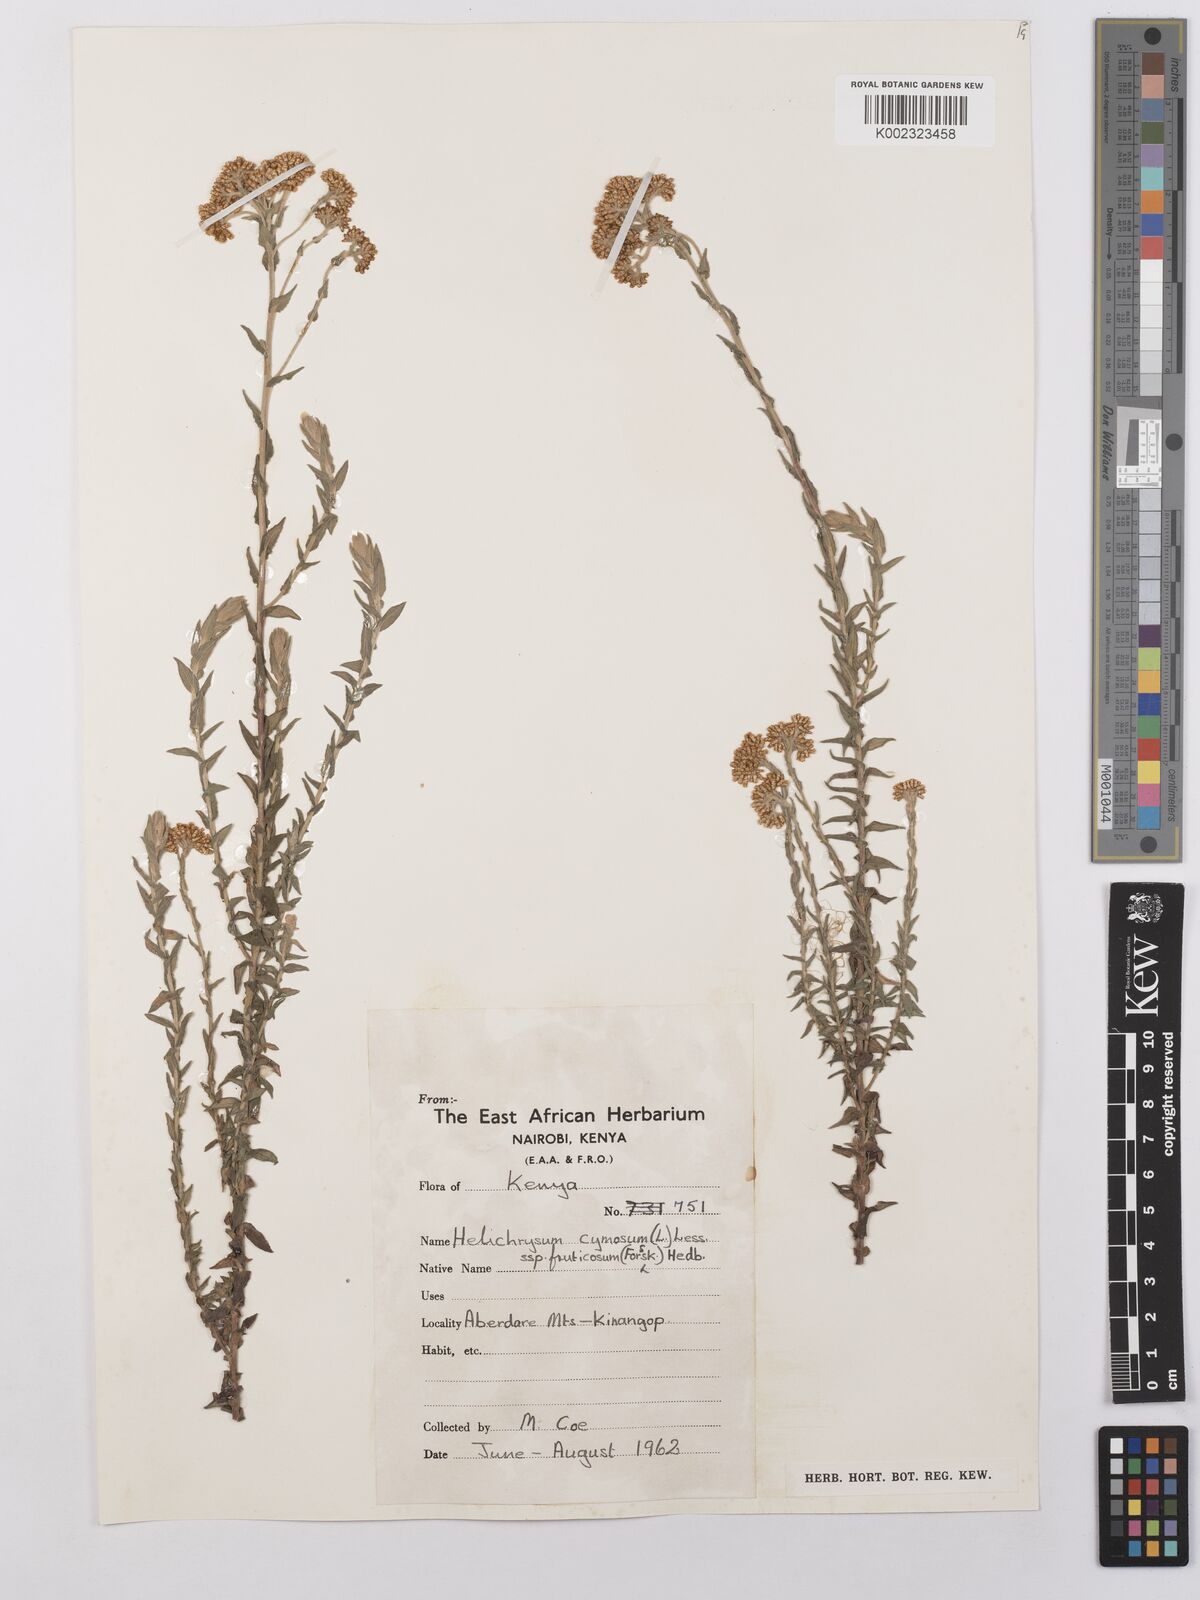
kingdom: Plantae
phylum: Tracheophyta
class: Magnoliopsida
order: Asterales
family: Asteraceae
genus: Helichrysum
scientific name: Helichrysum forskahlii
